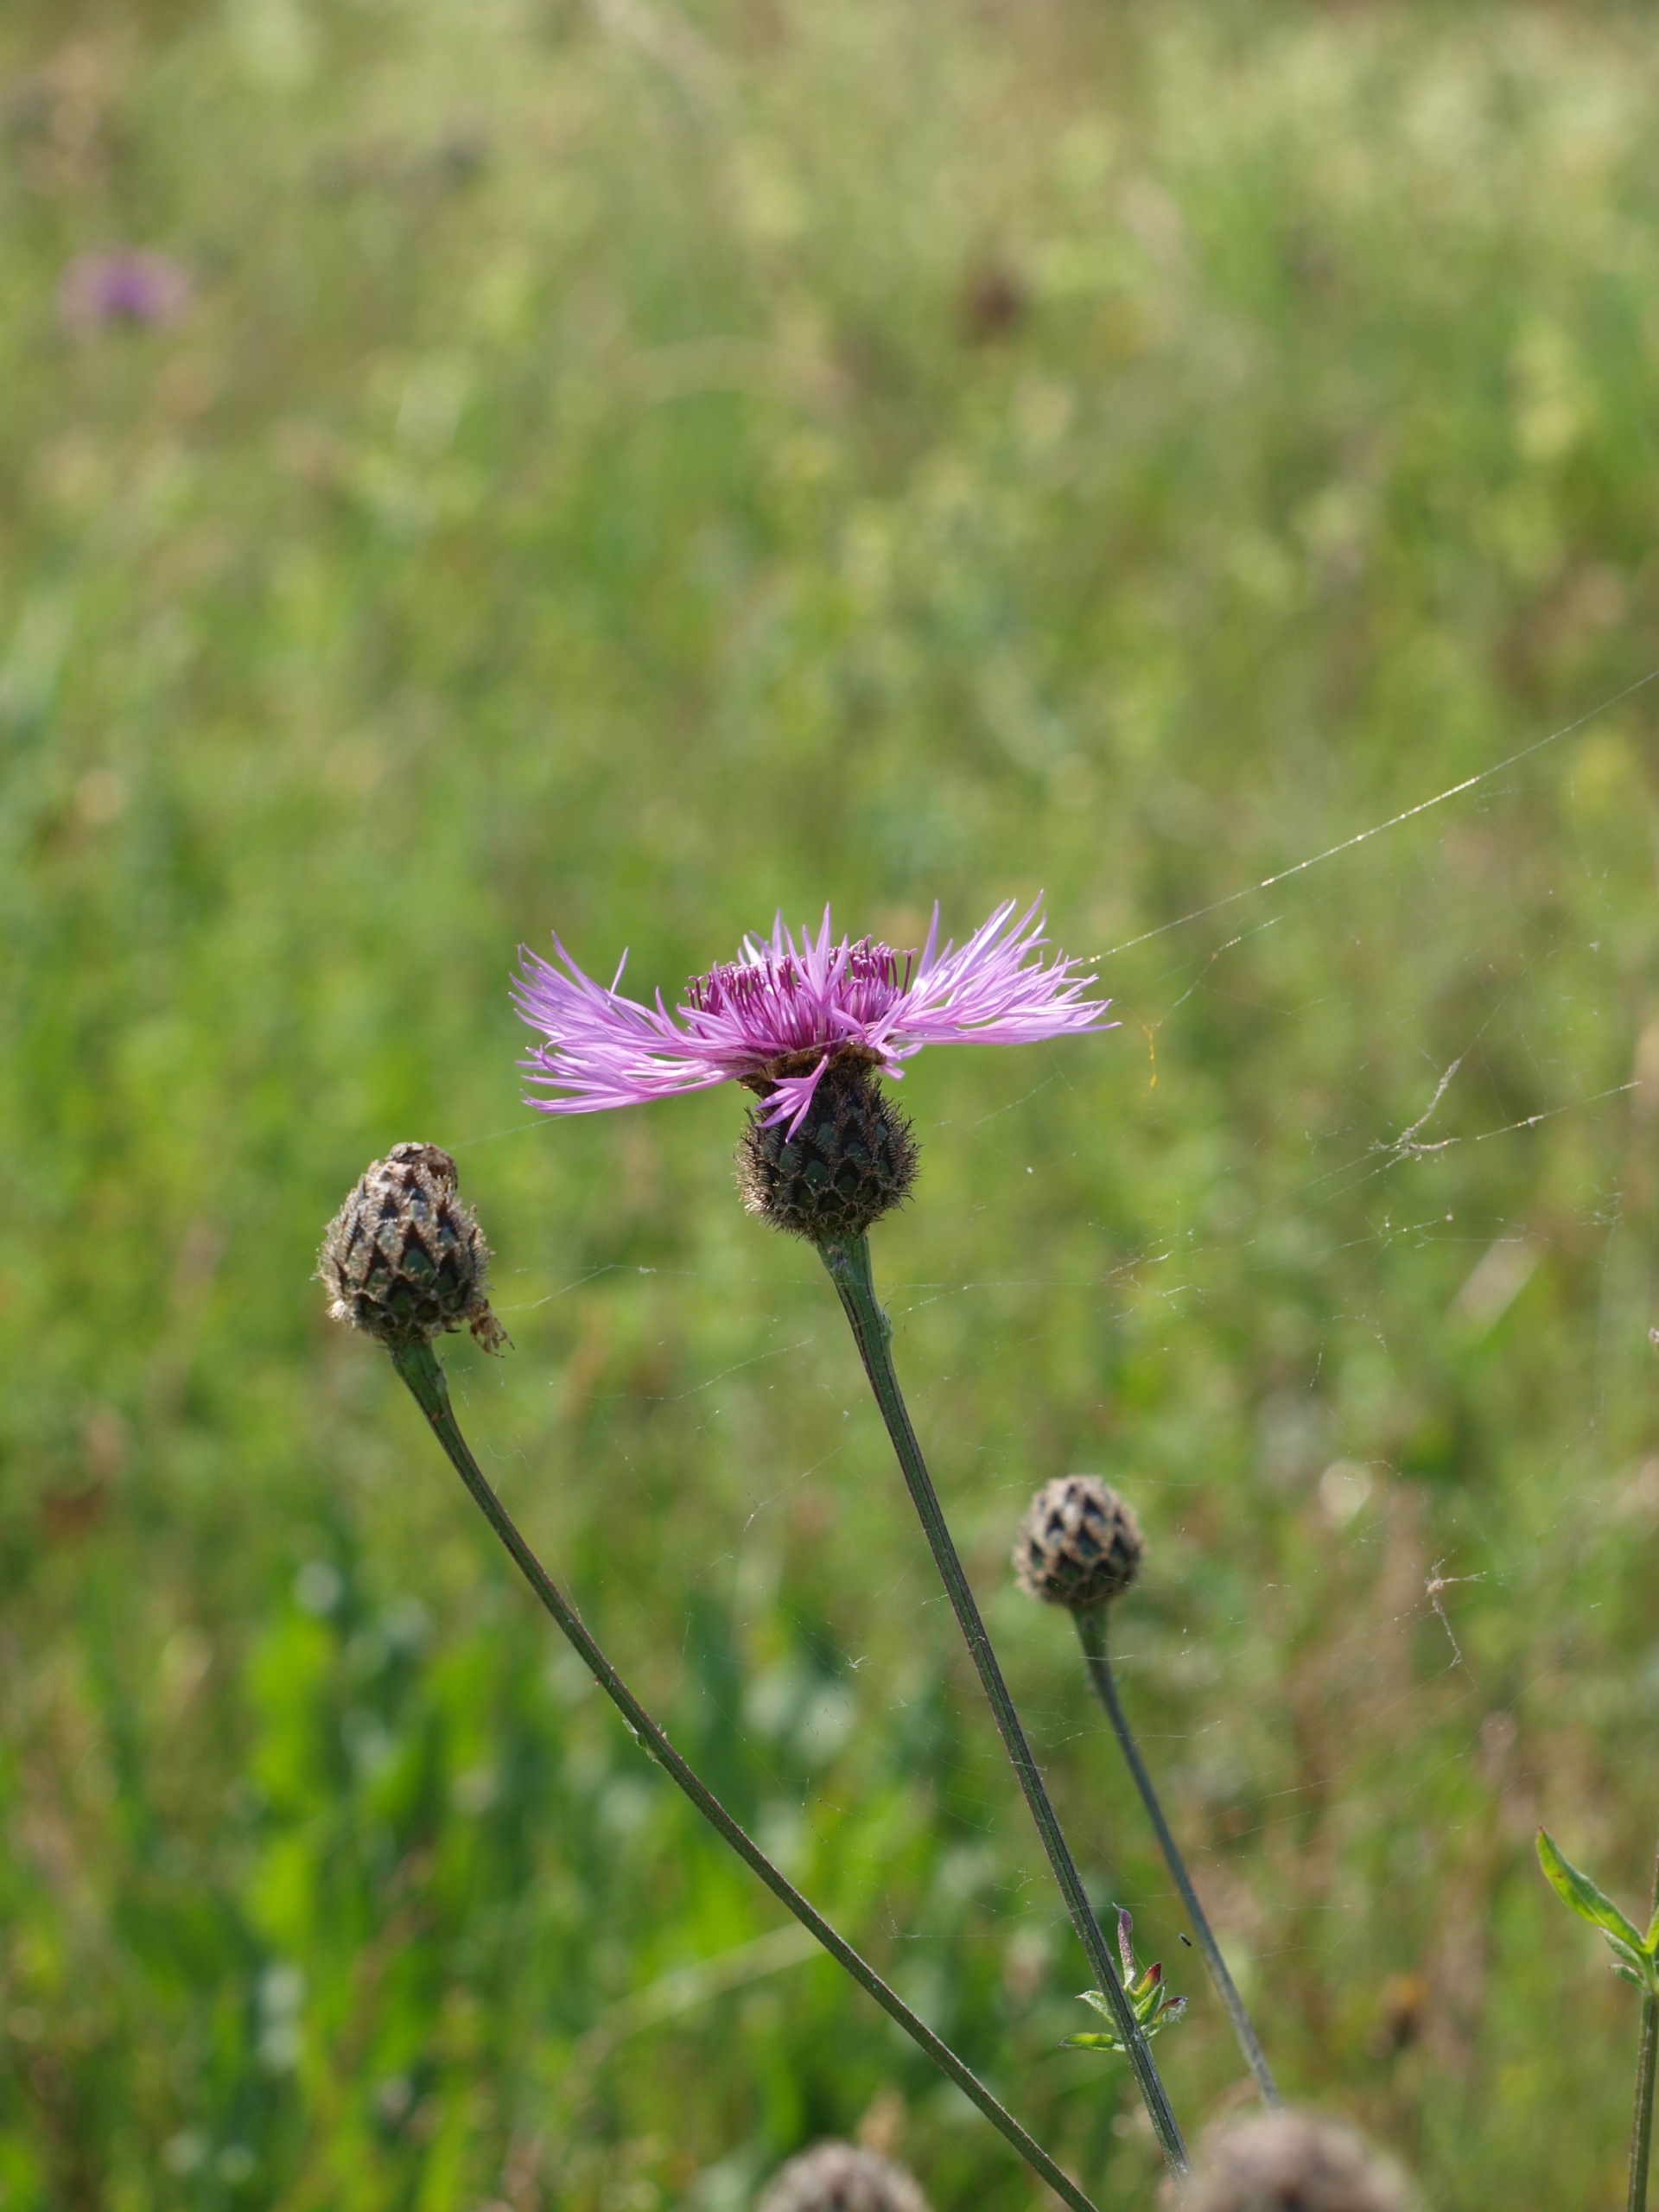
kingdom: Plantae
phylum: Tracheophyta
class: Magnoliopsida
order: Asterales
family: Asteraceae
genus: Centaurea
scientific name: Centaurea scabiosa
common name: Stor knopurt
